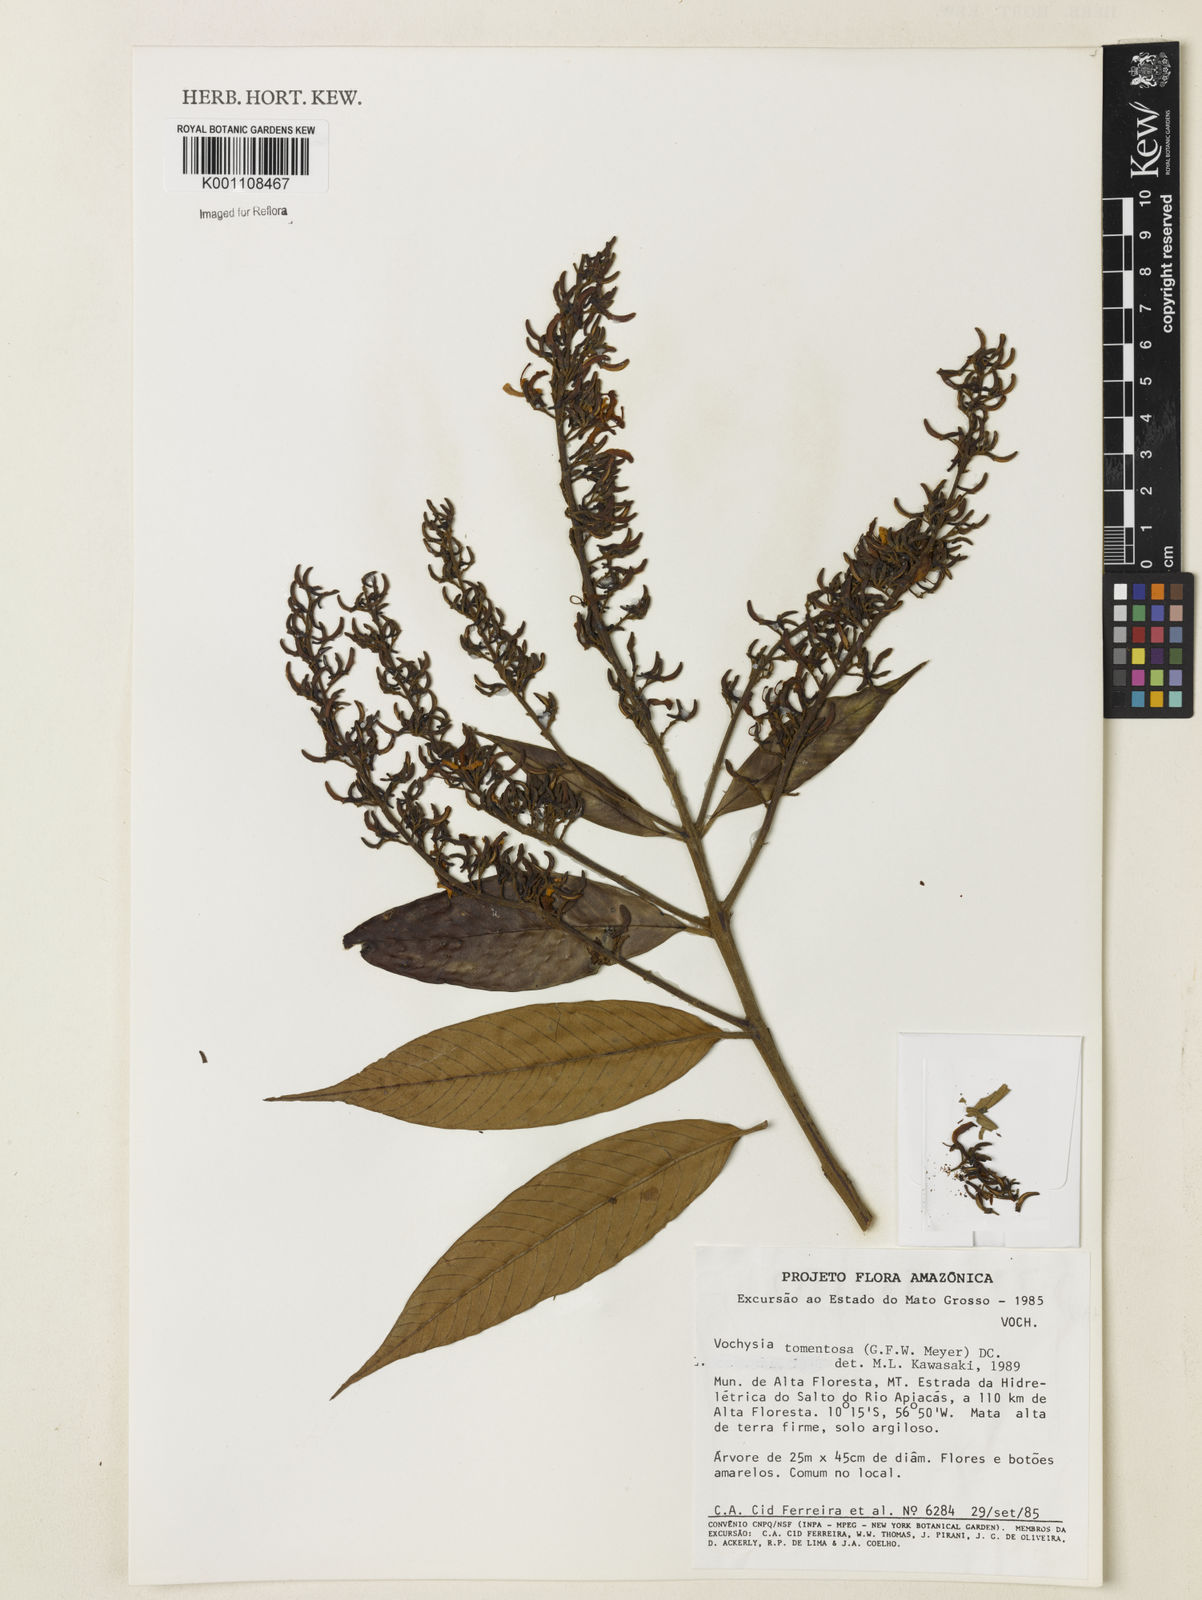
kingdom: Plantae
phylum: Tracheophyta
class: Magnoliopsida
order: Myrtales
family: Vochysiaceae
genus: Vochysia
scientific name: Vochysia tomentosa
